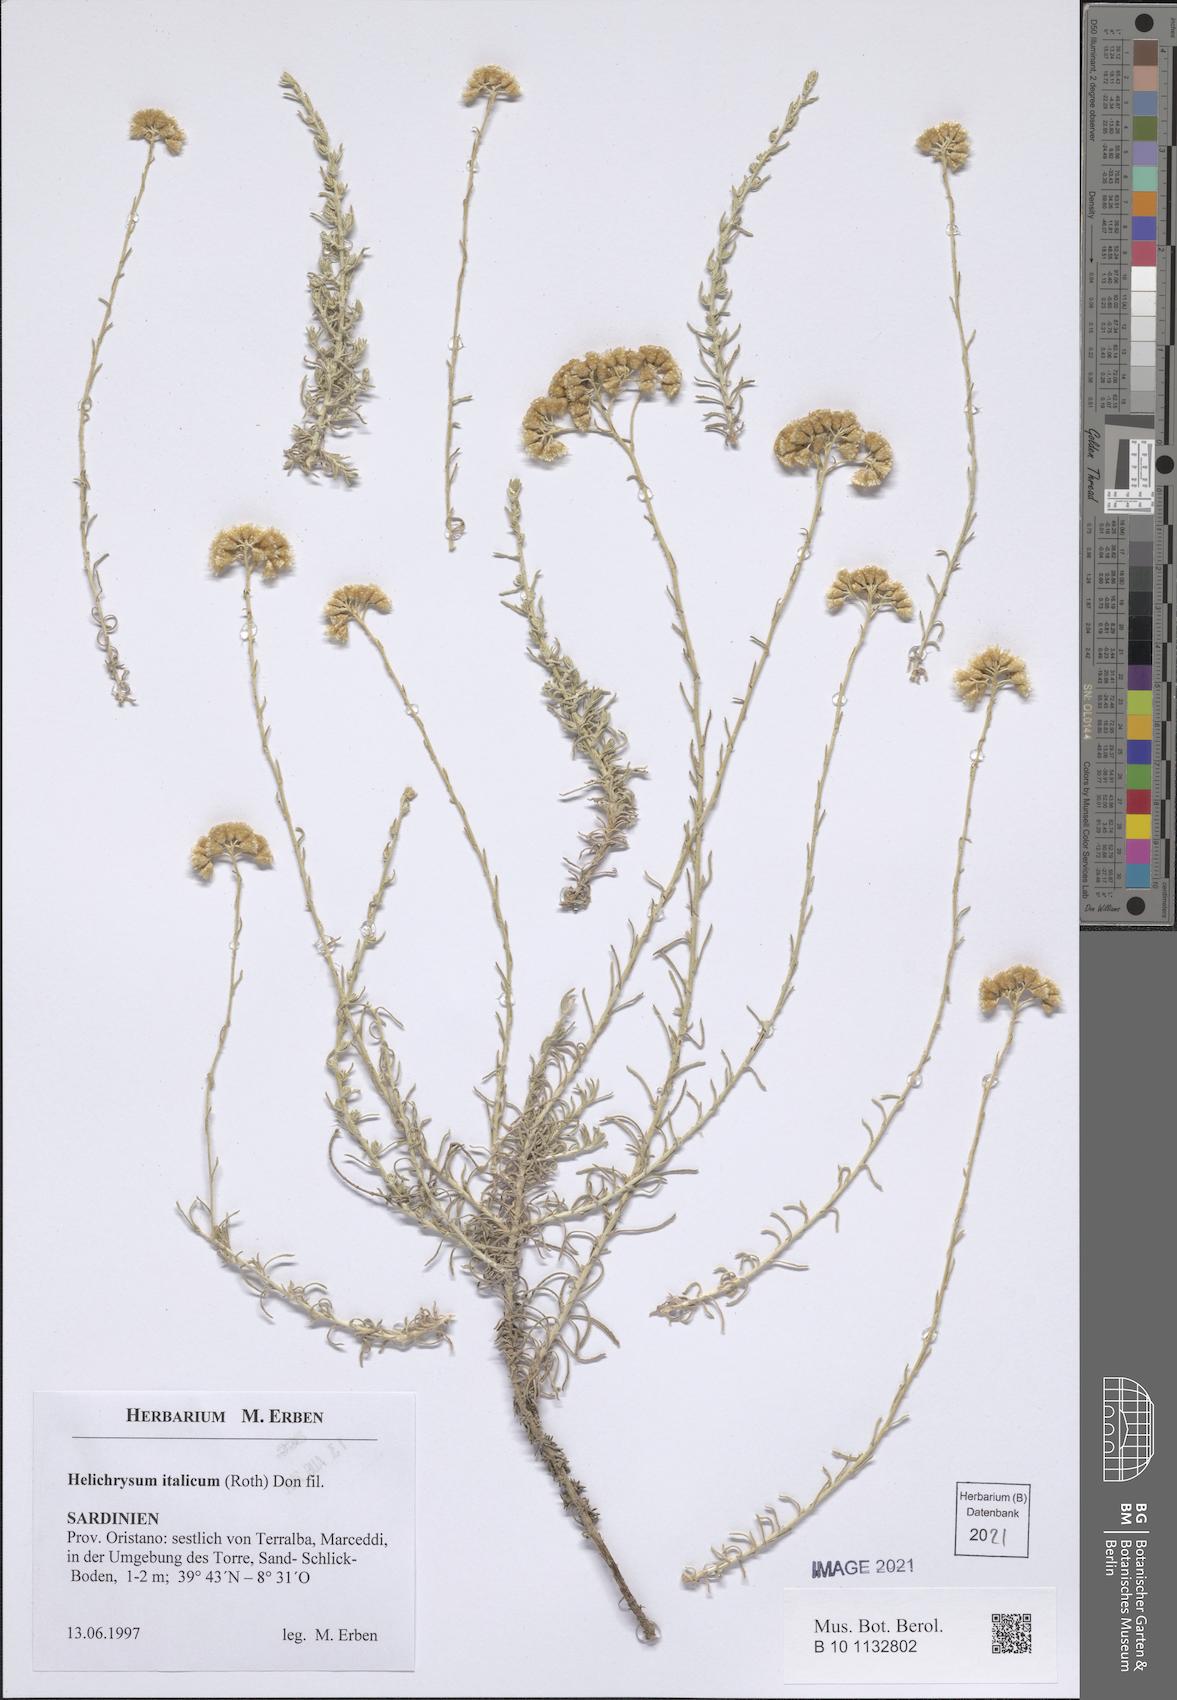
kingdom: Plantae
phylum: Tracheophyta
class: Magnoliopsida
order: Asterales
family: Asteraceae
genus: Helichrysum
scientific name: Helichrysum italicum
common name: Curryplant
